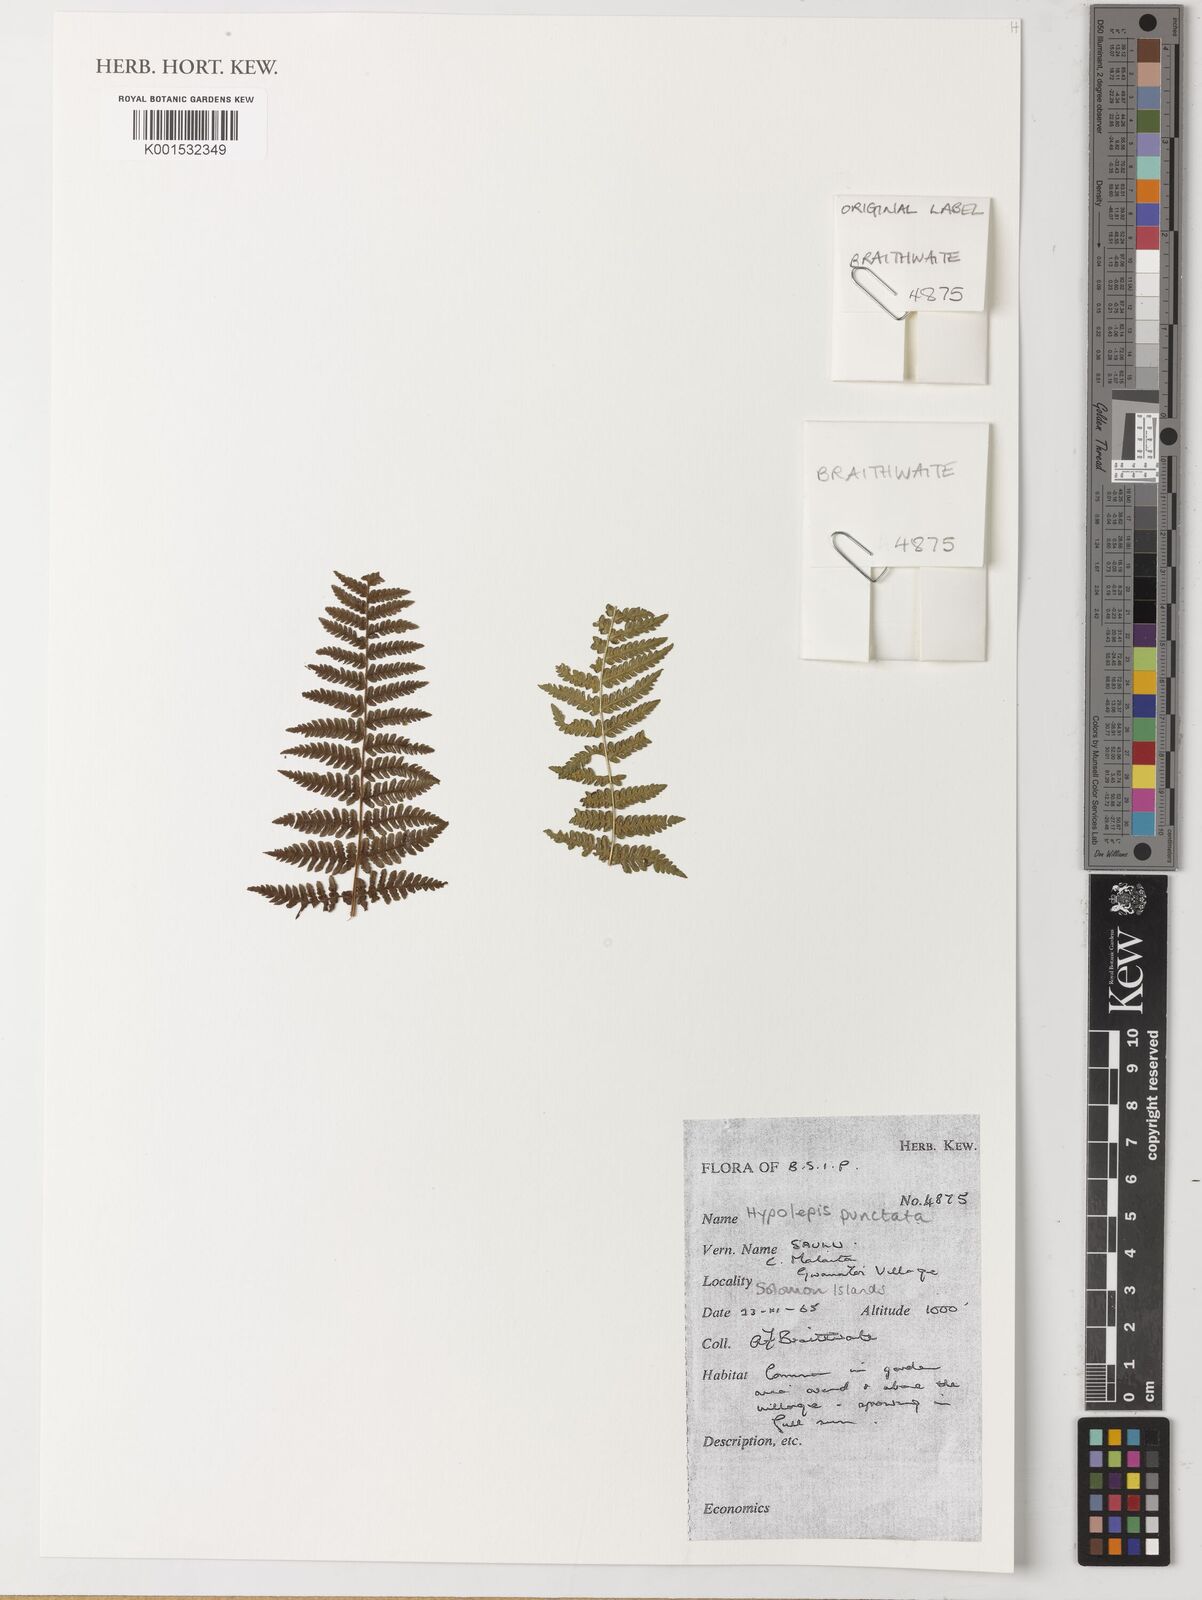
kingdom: Plantae
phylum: Tracheophyta
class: Polypodiopsida
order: Polypodiales
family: Dennstaedtiaceae
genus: Hypolepis
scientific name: Hypolepis punctata
